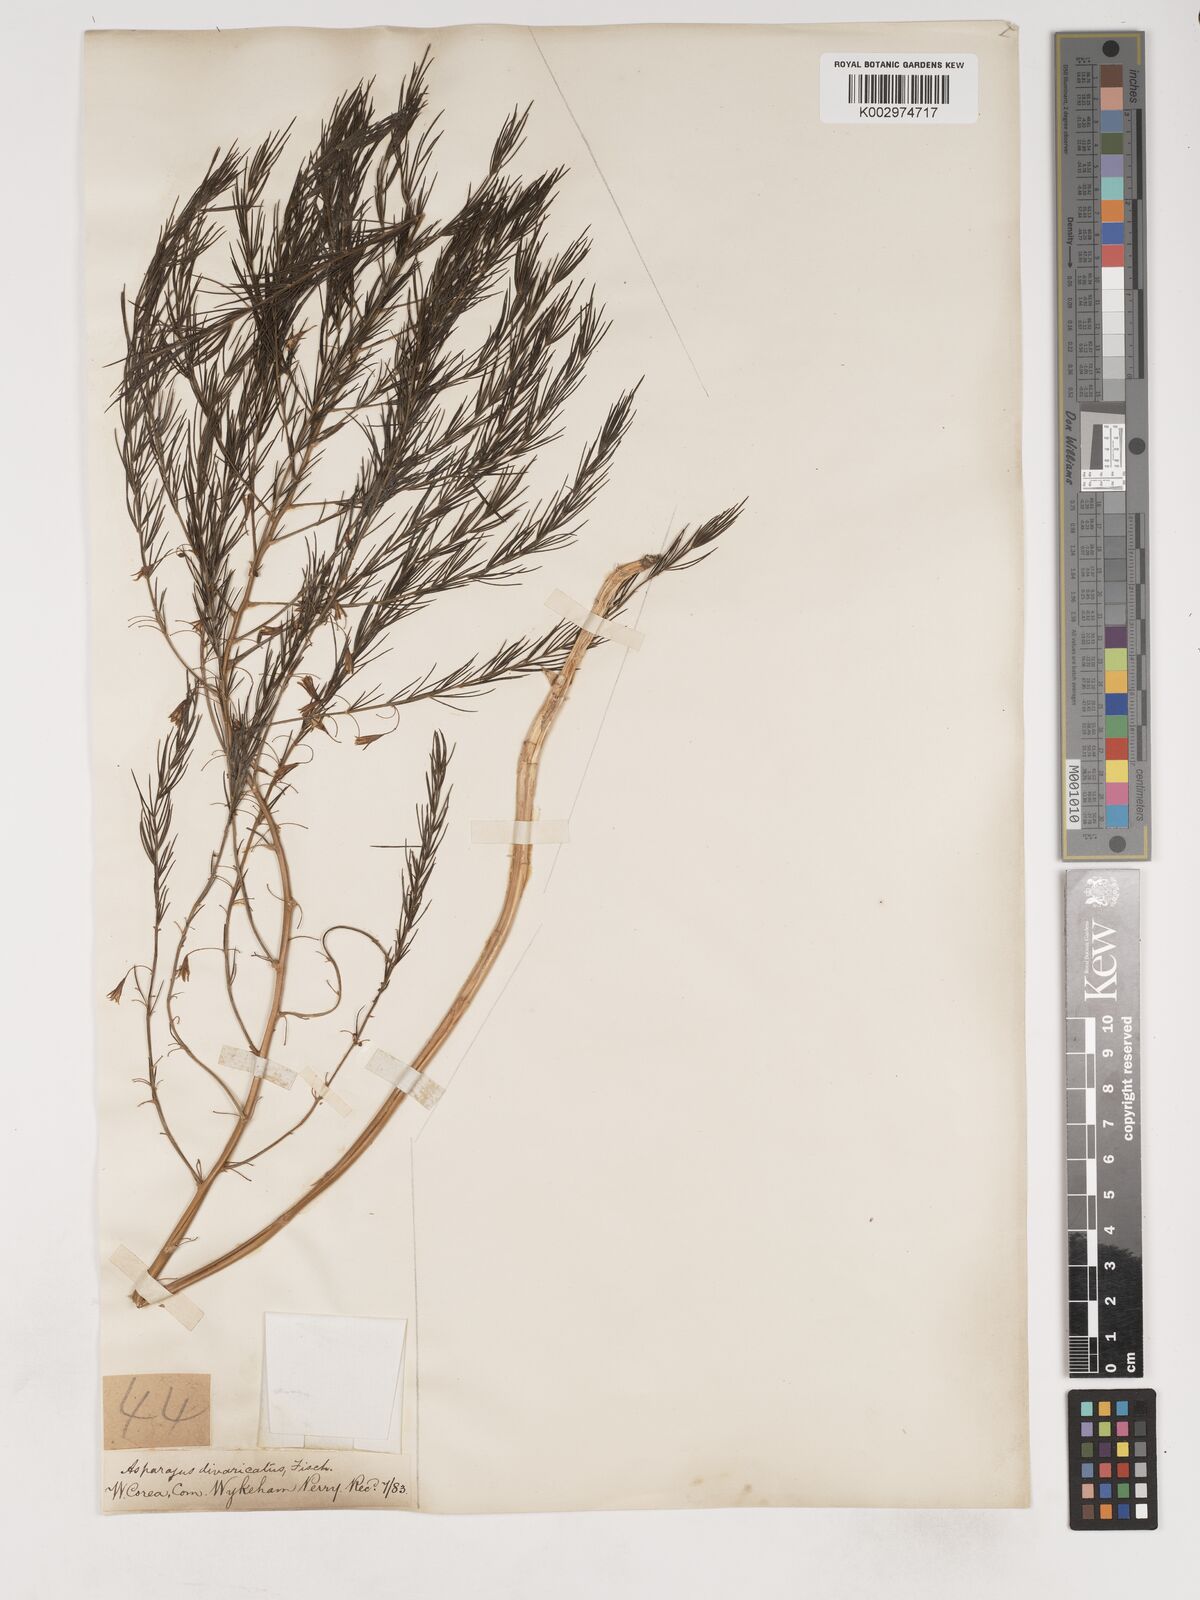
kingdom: Plantae
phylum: Tracheophyta
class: Liliopsida
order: Asparagales
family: Asparagaceae
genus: Asparagus
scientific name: Asparagus oligoclonos
